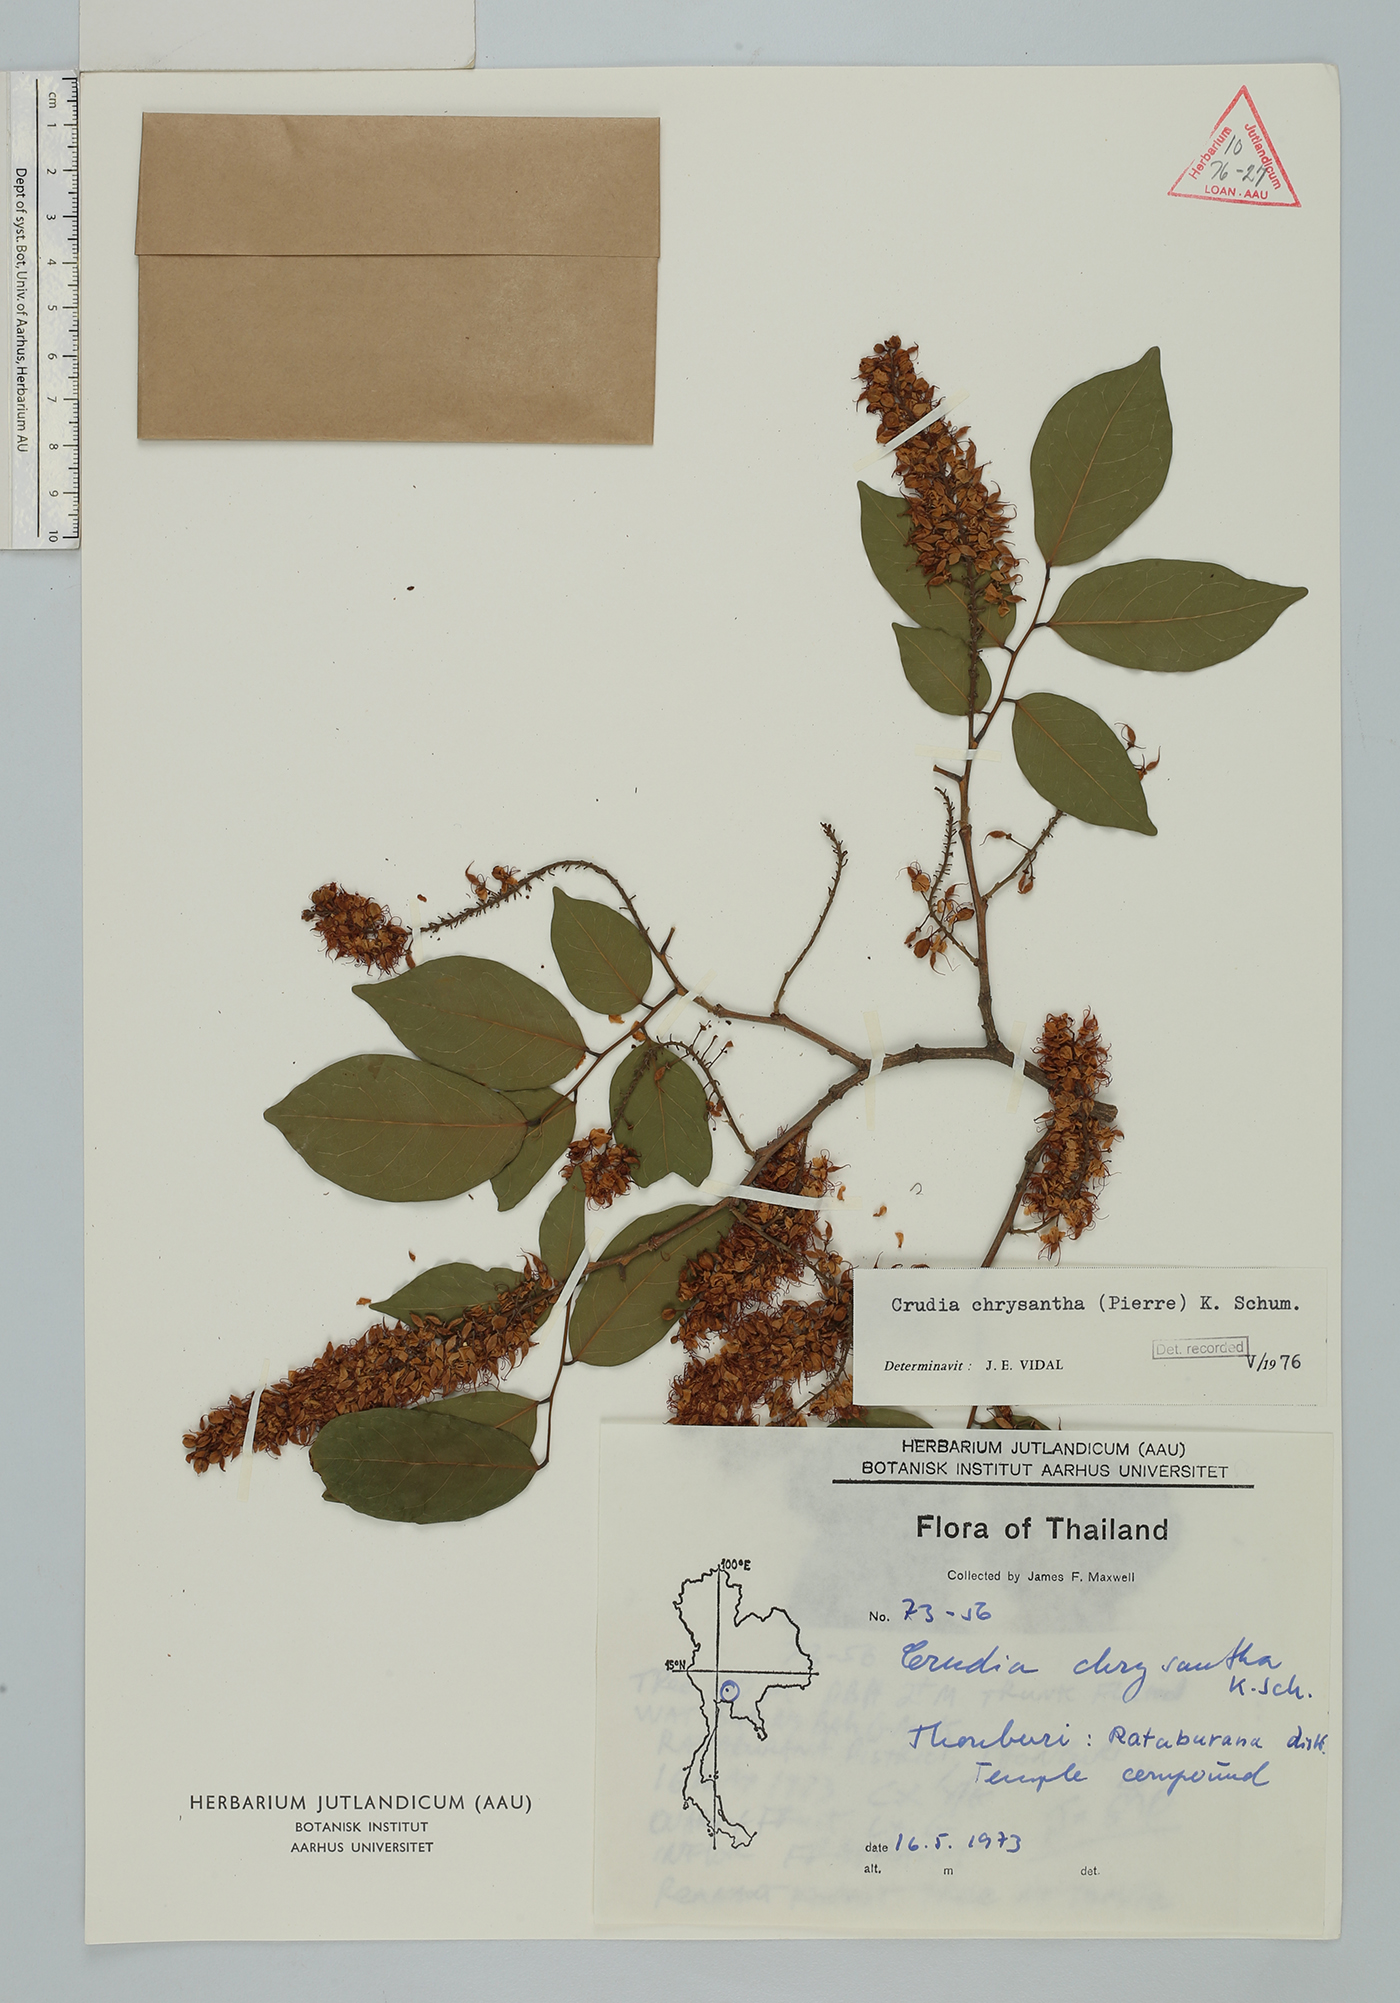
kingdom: Plantae
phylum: Tracheophyta
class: Magnoliopsida
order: Fabales
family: Fabaceae
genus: Crudia
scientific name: Crudia zeylanica
